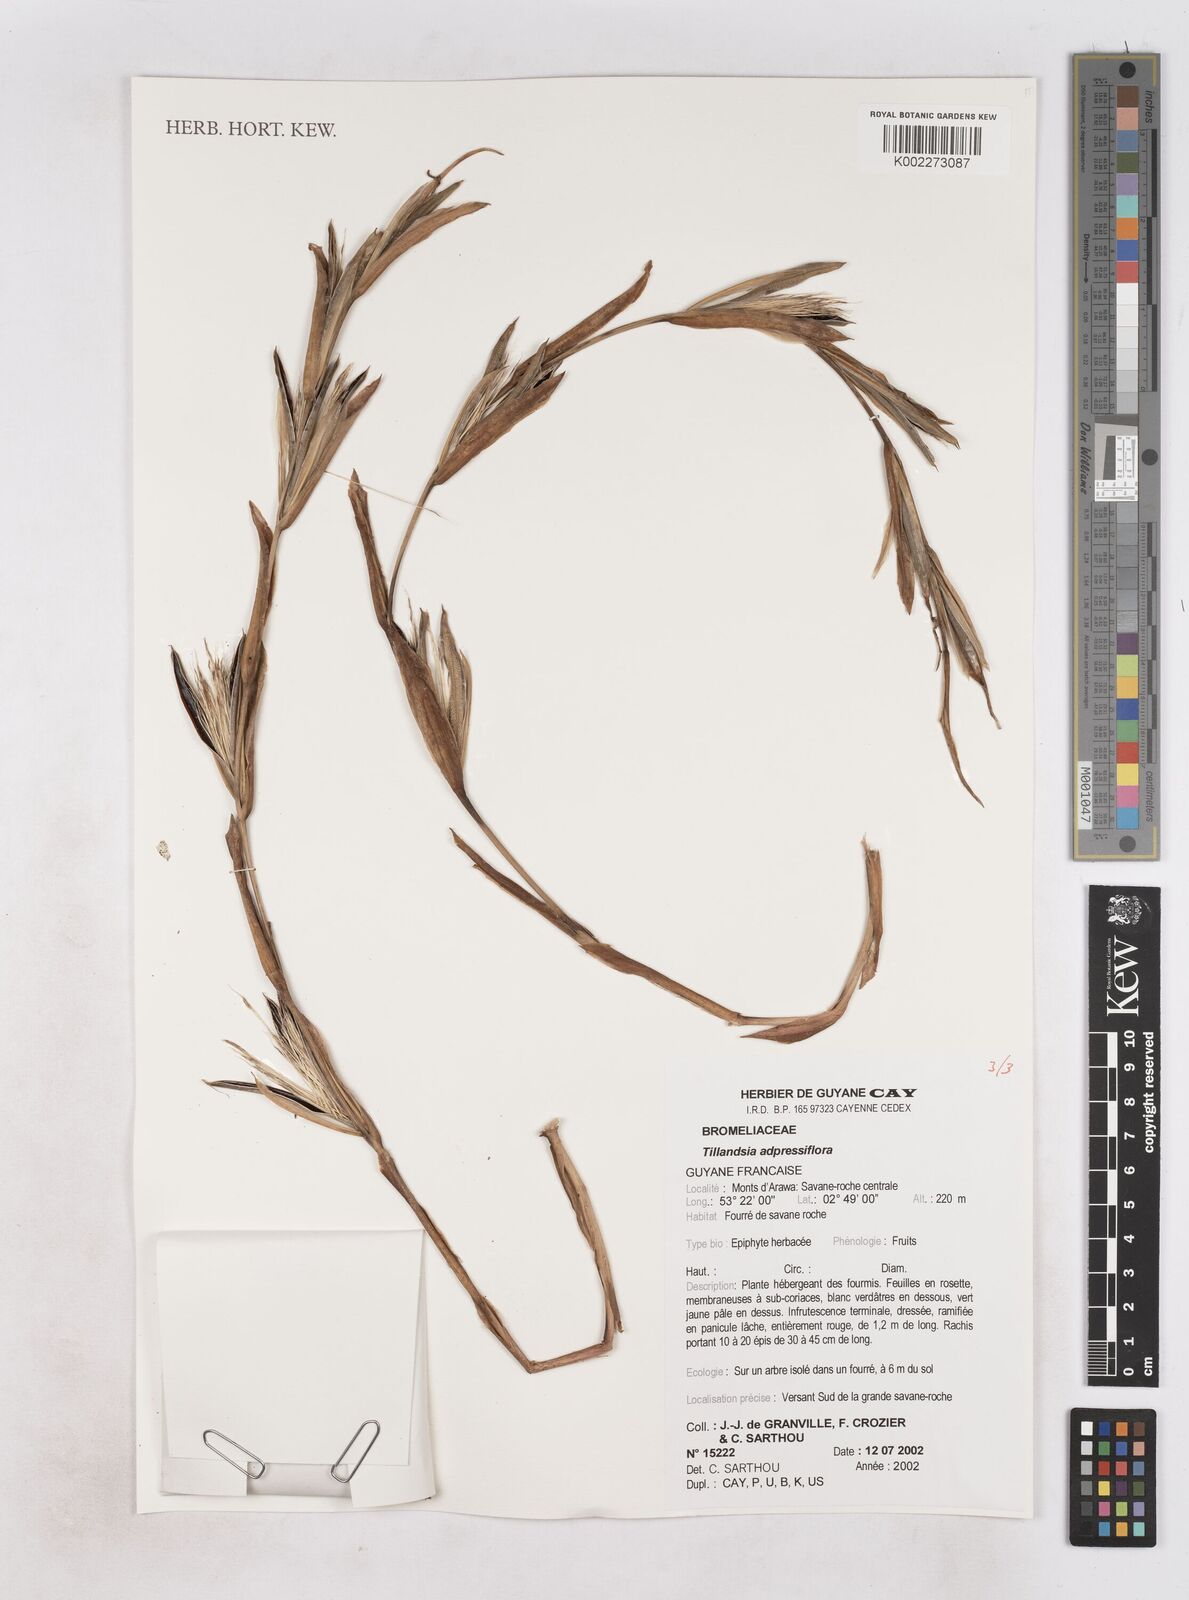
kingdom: Plantae
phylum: Tracheophyta
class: Liliopsida
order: Poales
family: Bromeliaceae
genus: Tillandsia
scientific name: Tillandsia
